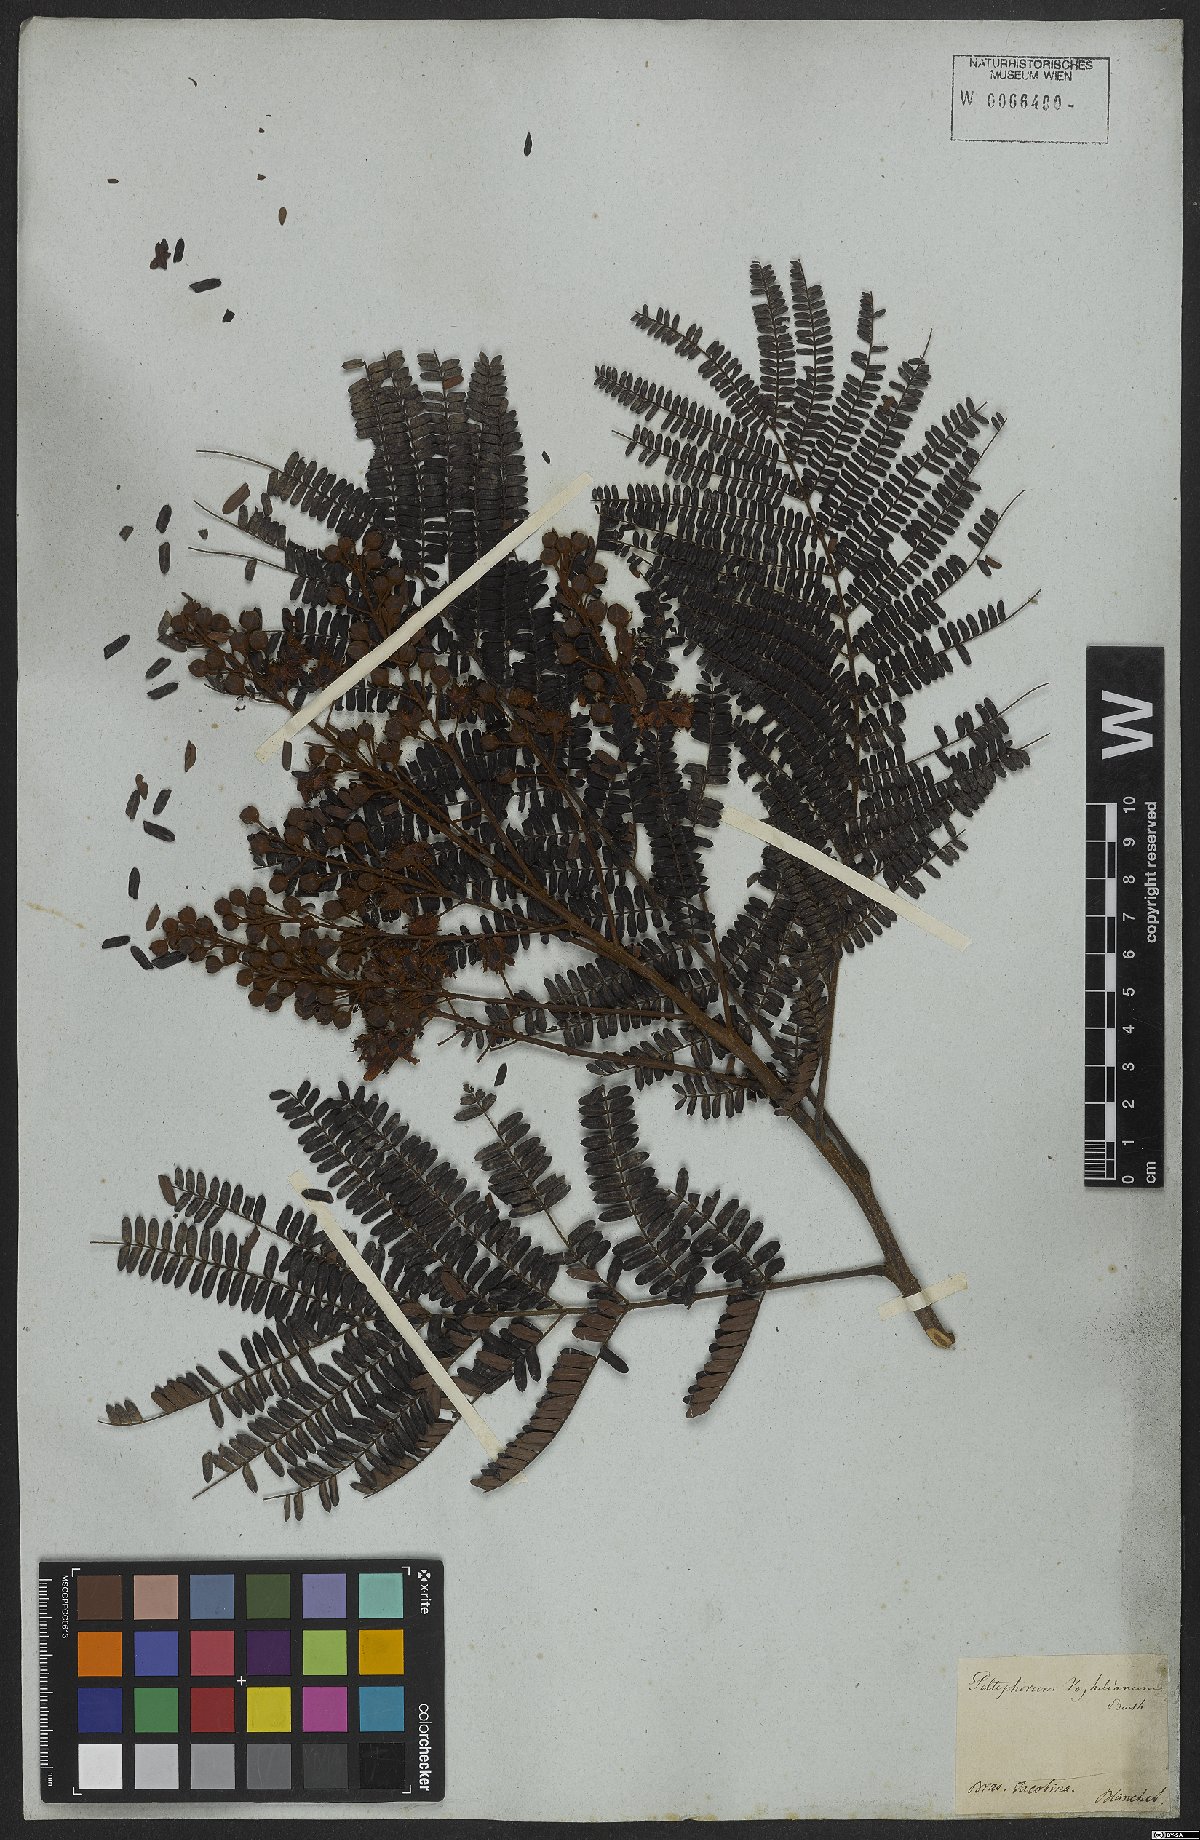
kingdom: Plantae
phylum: Tracheophyta
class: Magnoliopsida
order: Fabales
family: Fabaceae
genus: Peltophorum
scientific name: Peltophorum dubium
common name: Horsebush
